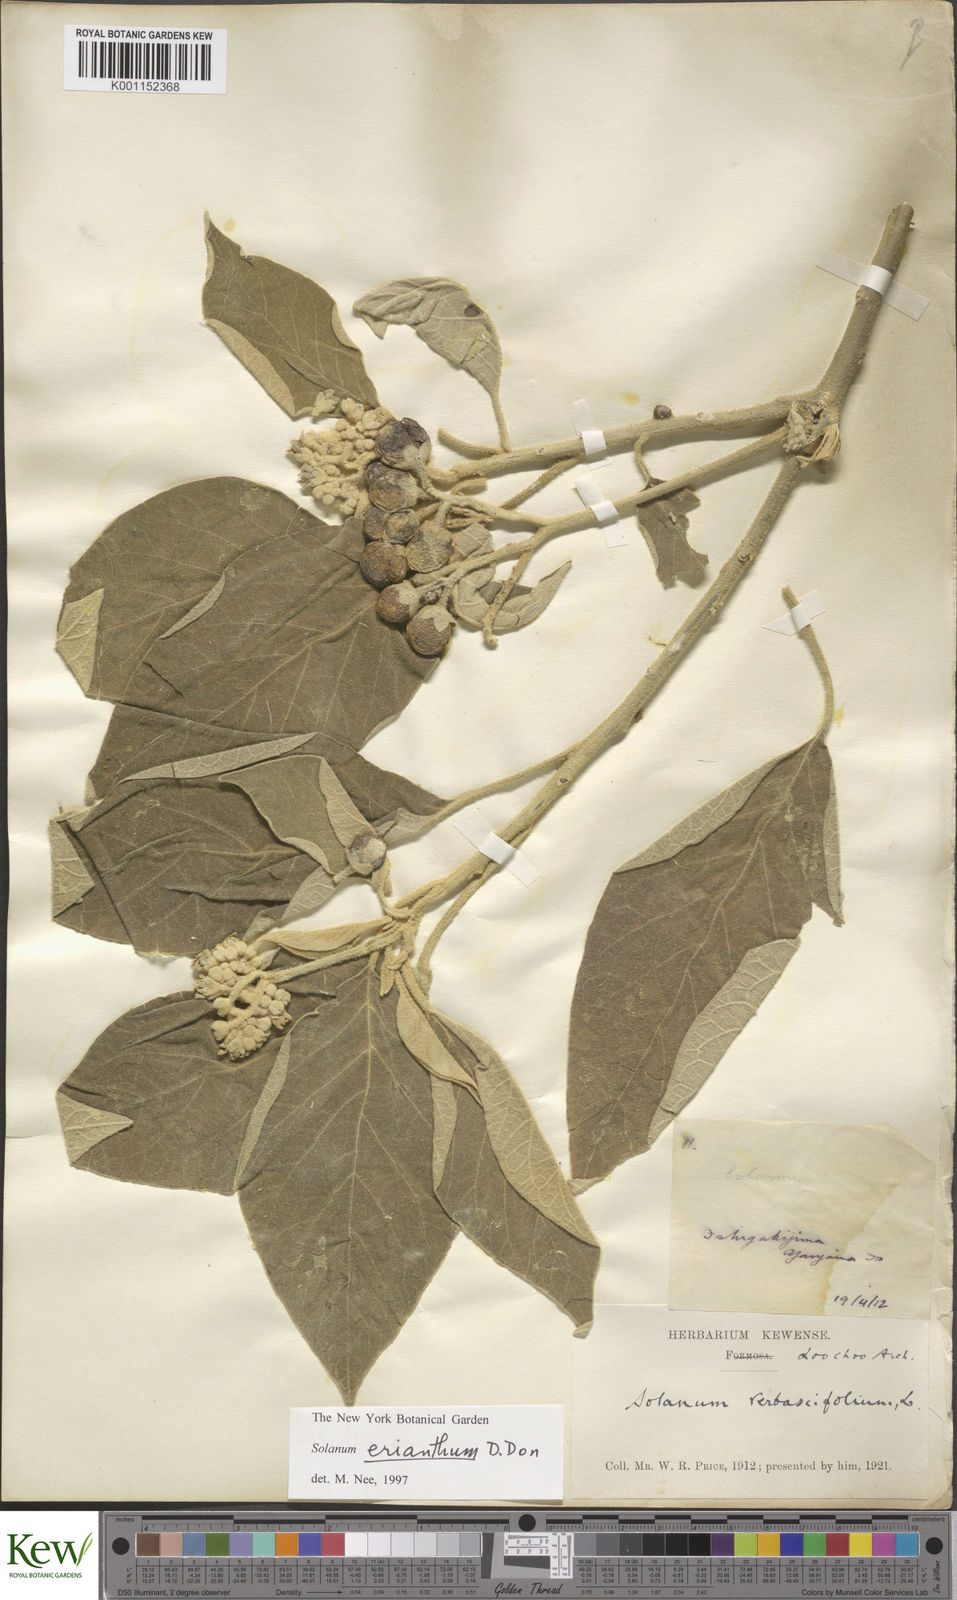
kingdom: Plantae
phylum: Tracheophyta
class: Magnoliopsida
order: Solanales
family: Solanaceae
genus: Solanum
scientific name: Solanum donianum
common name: Mullein nightshade
